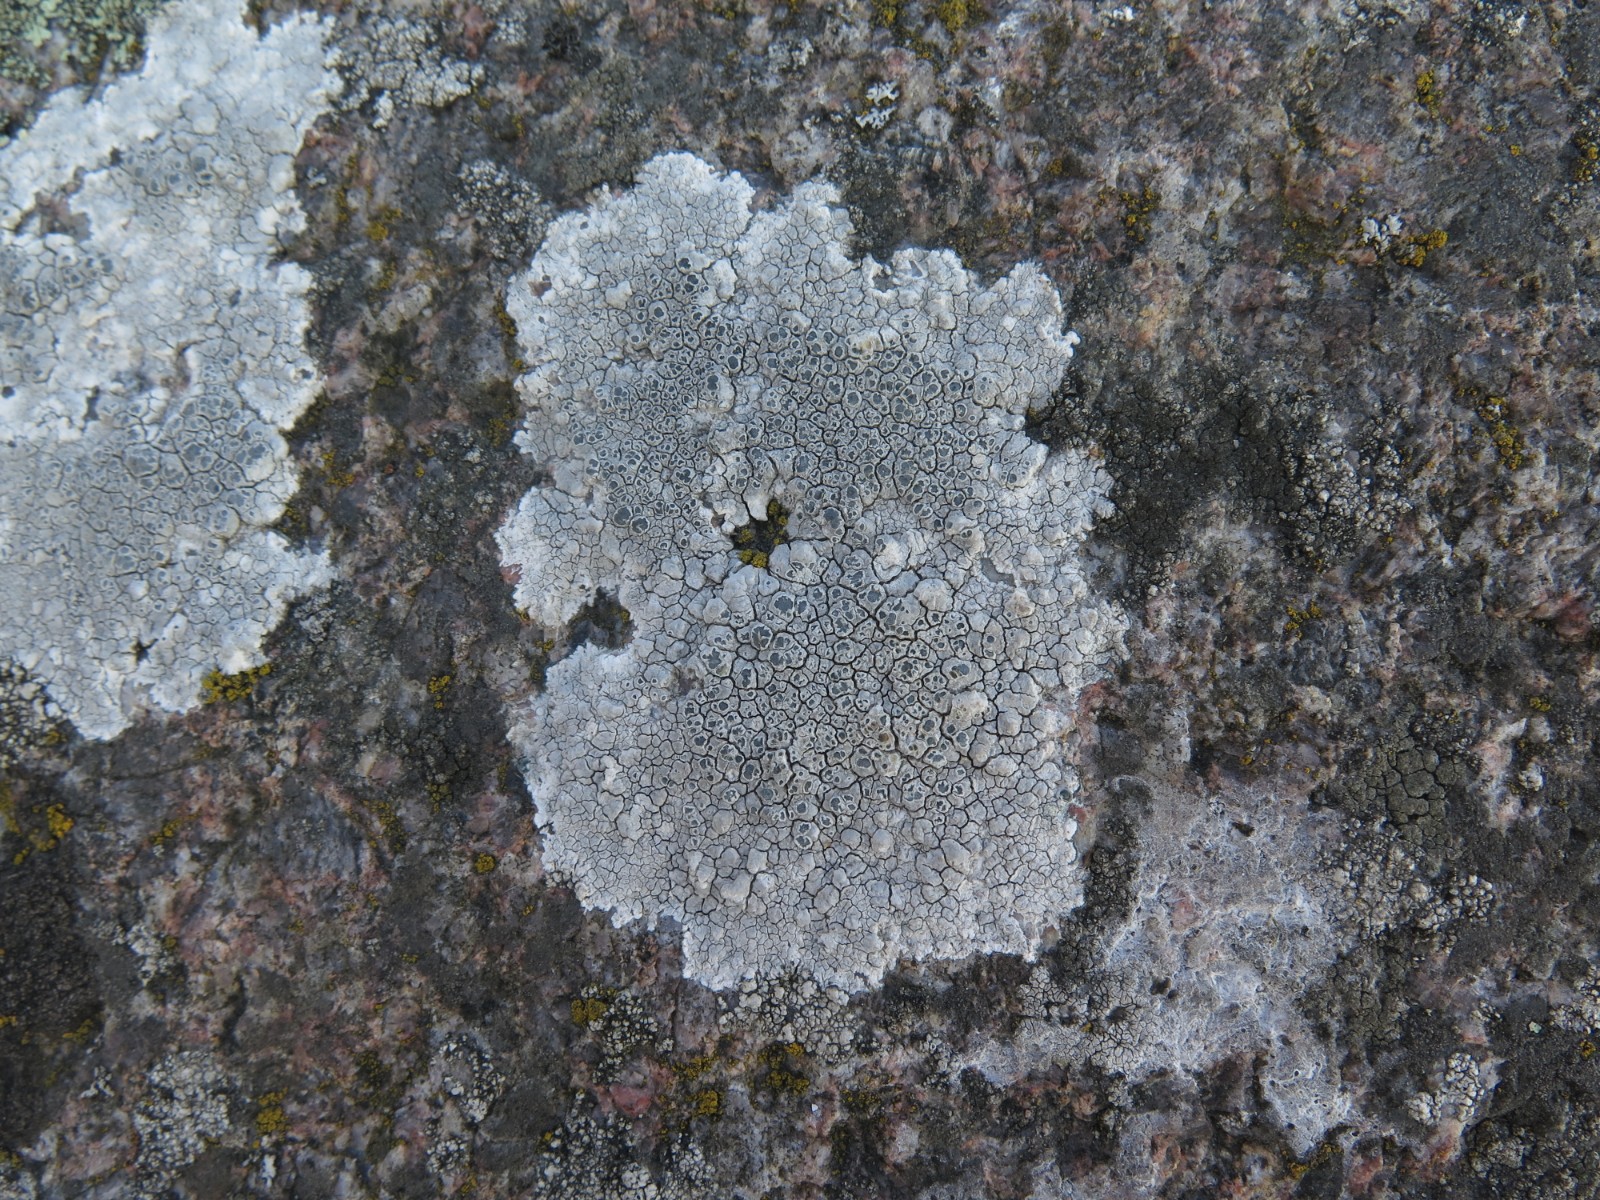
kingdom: Fungi
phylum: Ascomycota
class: Lecanoromycetes
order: Lecanorales
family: Lecanoraceae
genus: Glaucomaria
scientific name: Glaucomaria rupicola
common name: stengærde-kantskivelav
